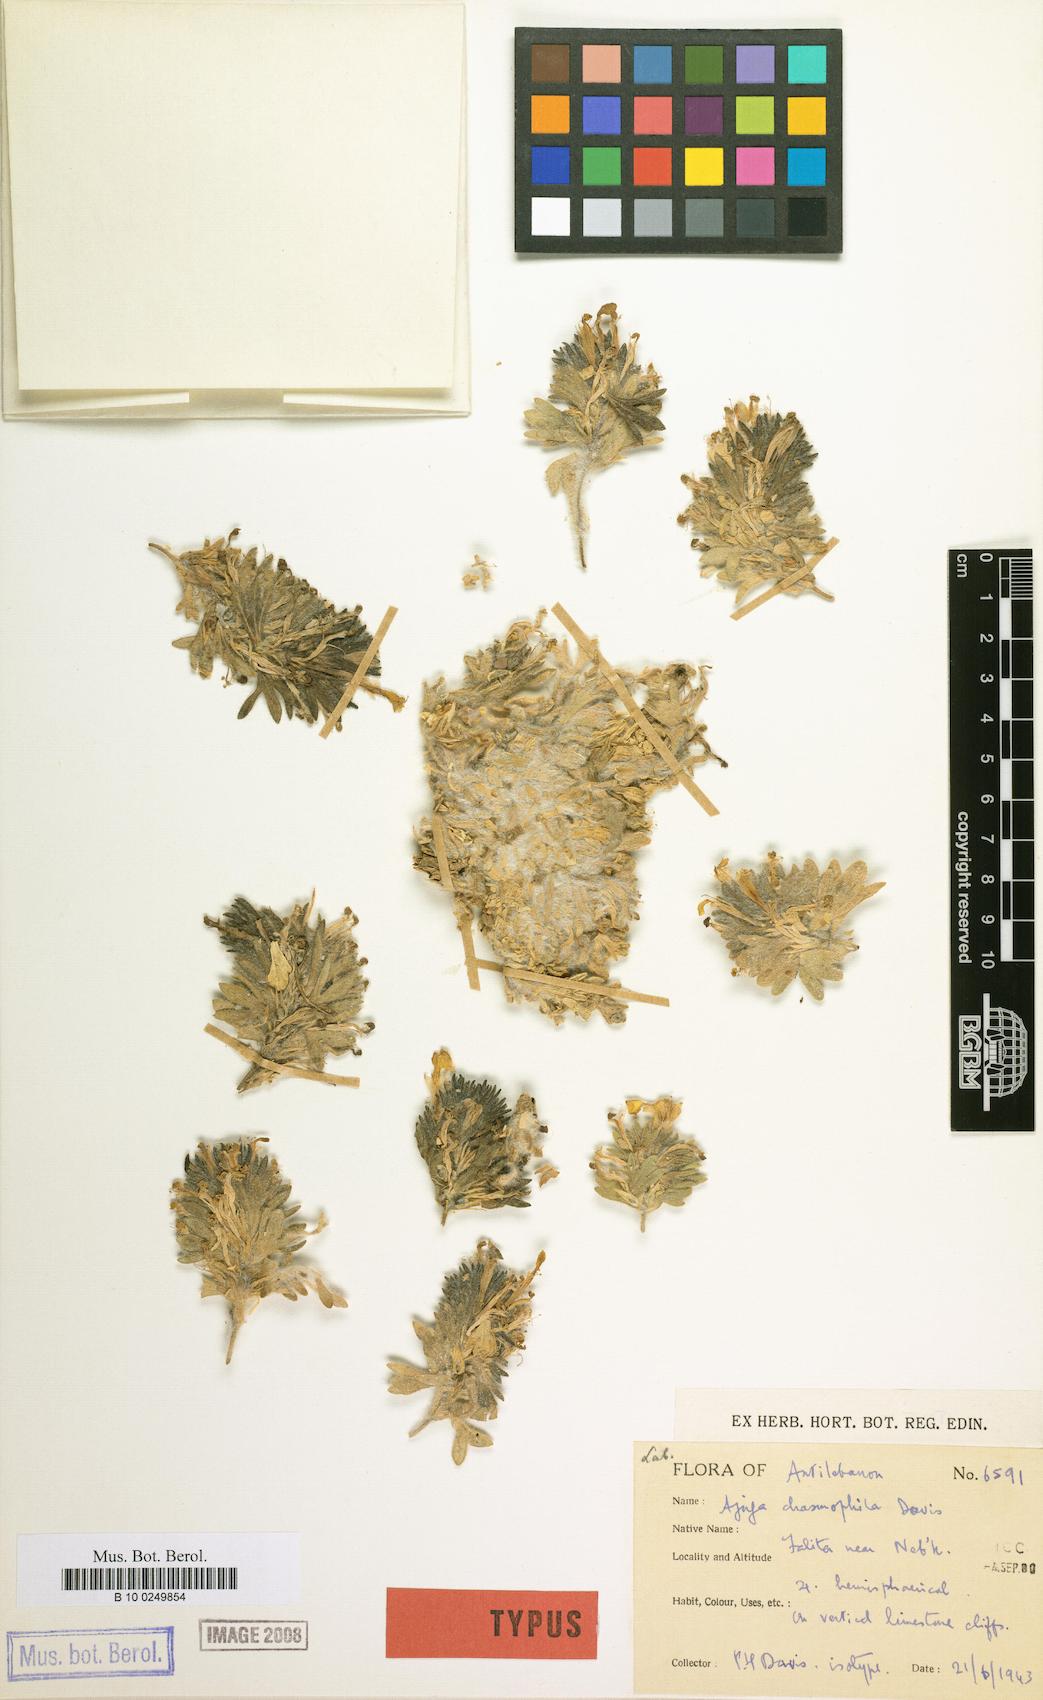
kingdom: Plantae
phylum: Tracheophyta
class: Magnoliopsida
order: Lamiales
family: Lamiaceae
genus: Ajuga
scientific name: Ajuga chasmophila
